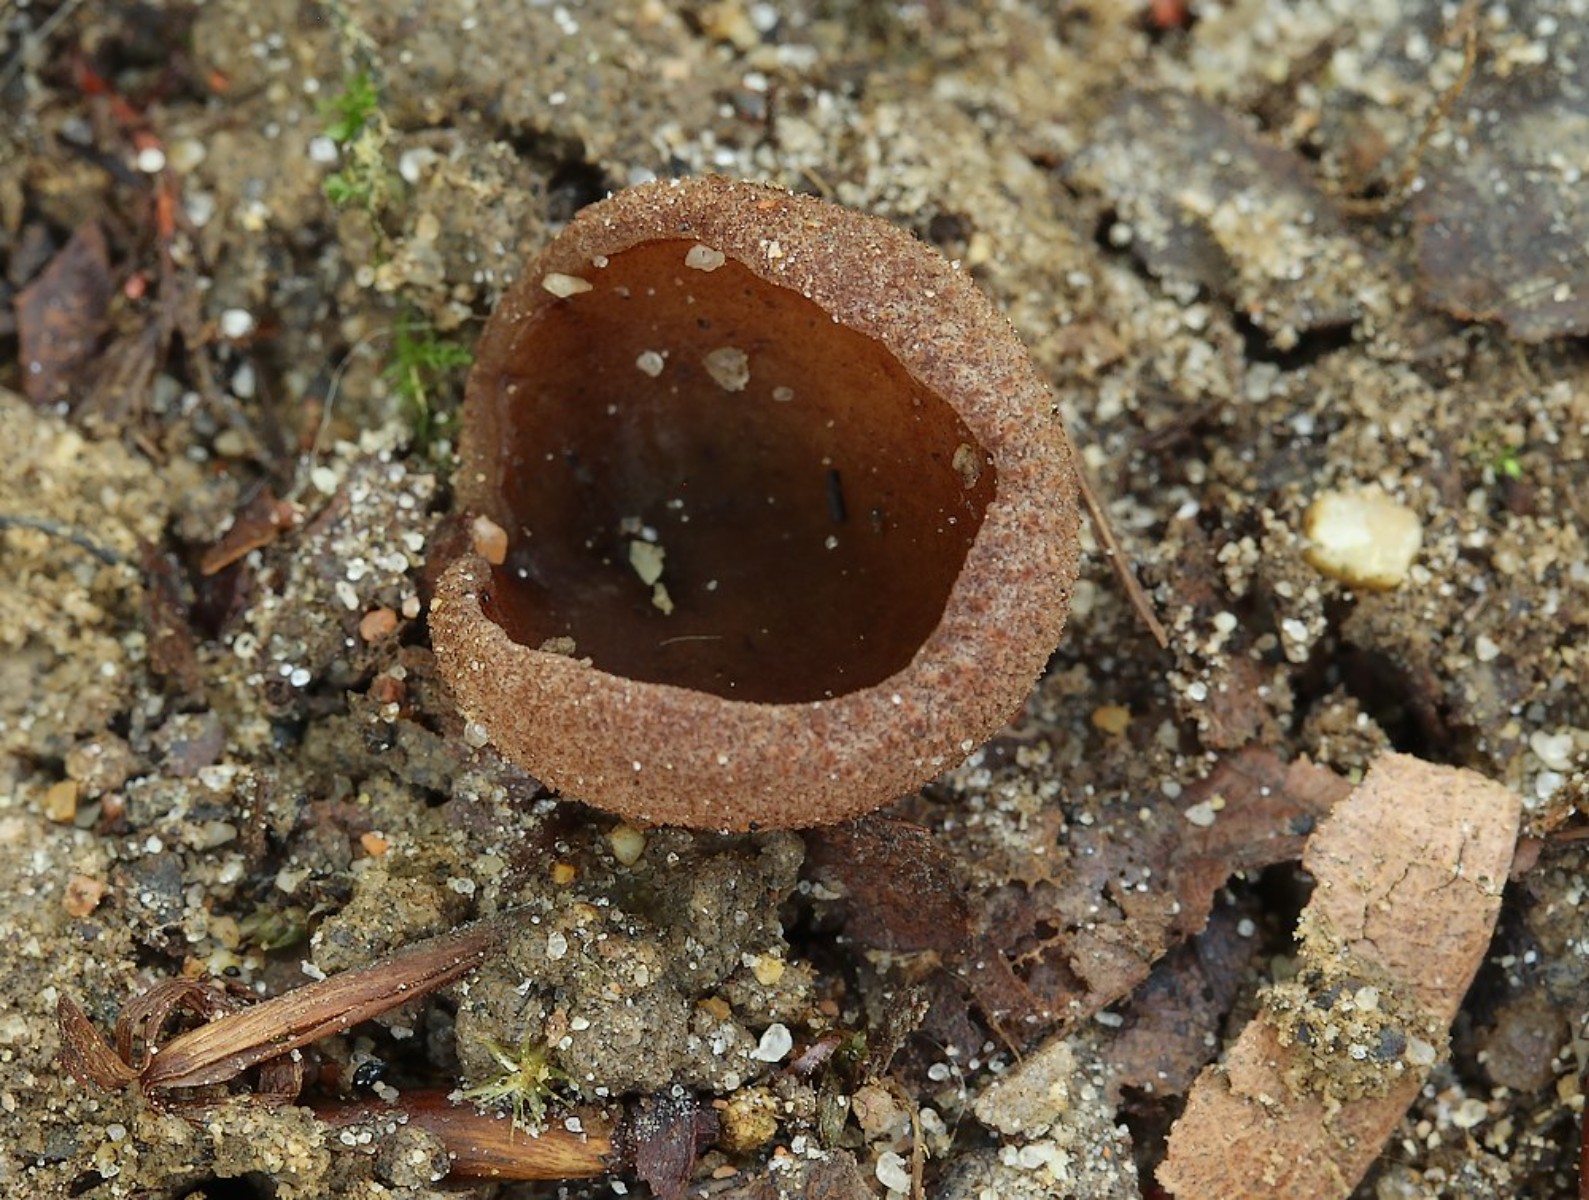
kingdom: Fungi
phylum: Ascomycota
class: Pezizomycetes
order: Pezizales
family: Pezizaceae
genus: Adelphella
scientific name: Adelphella babingtonii
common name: kastaniebrun bægersvamp
